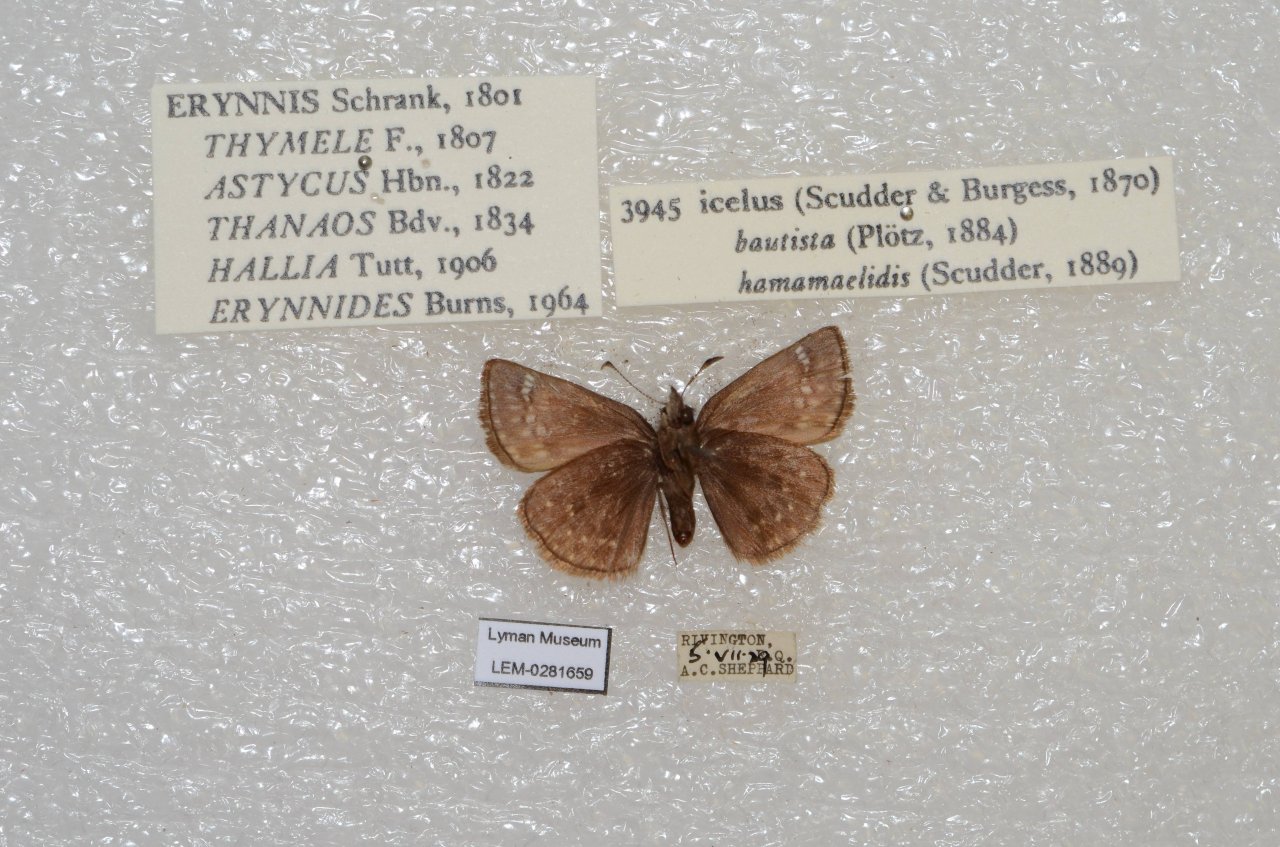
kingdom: Animalia
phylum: Arthropoda
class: Insecta
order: Lepidoptera
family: Hesperiidae
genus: Erynnis
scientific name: Erynnis icelus
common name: Dreamy Duskywing
